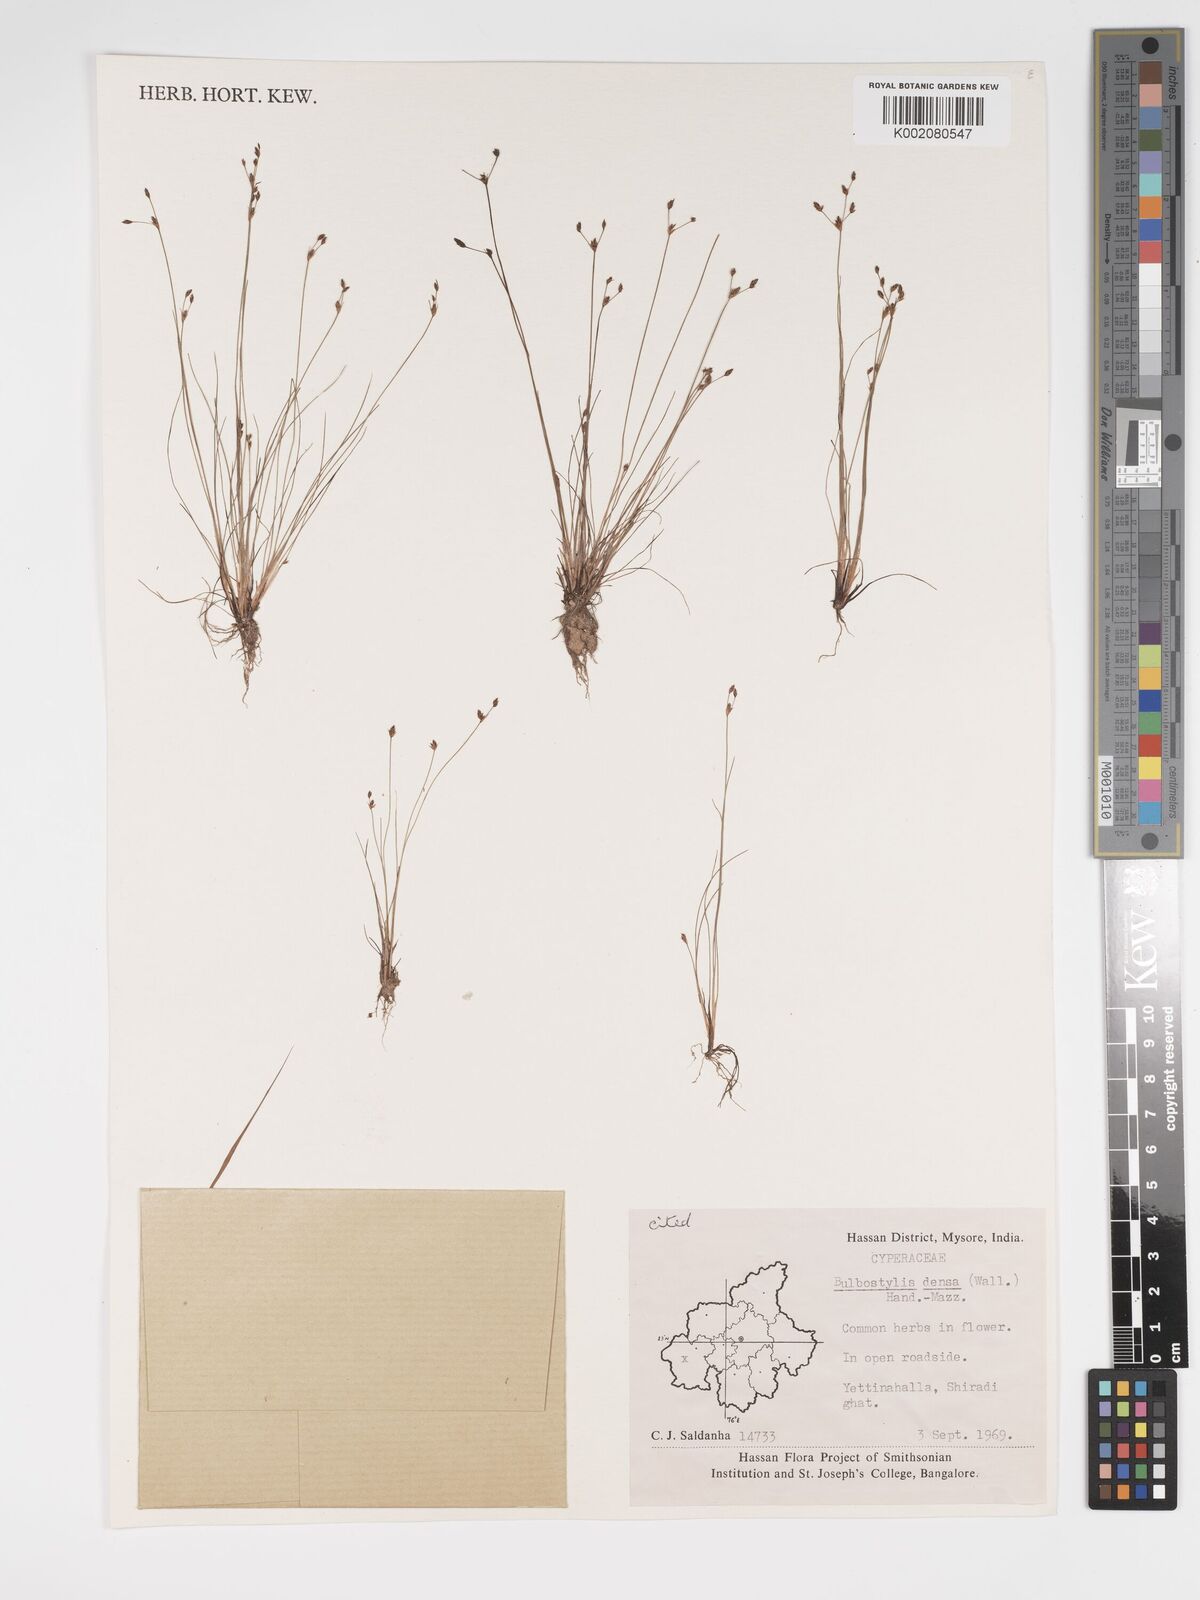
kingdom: Plantae
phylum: Tracheophyta
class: Liliopsida
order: Poales
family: Cyperaceae
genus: Bulbostylis
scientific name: Bulbostylis densa
